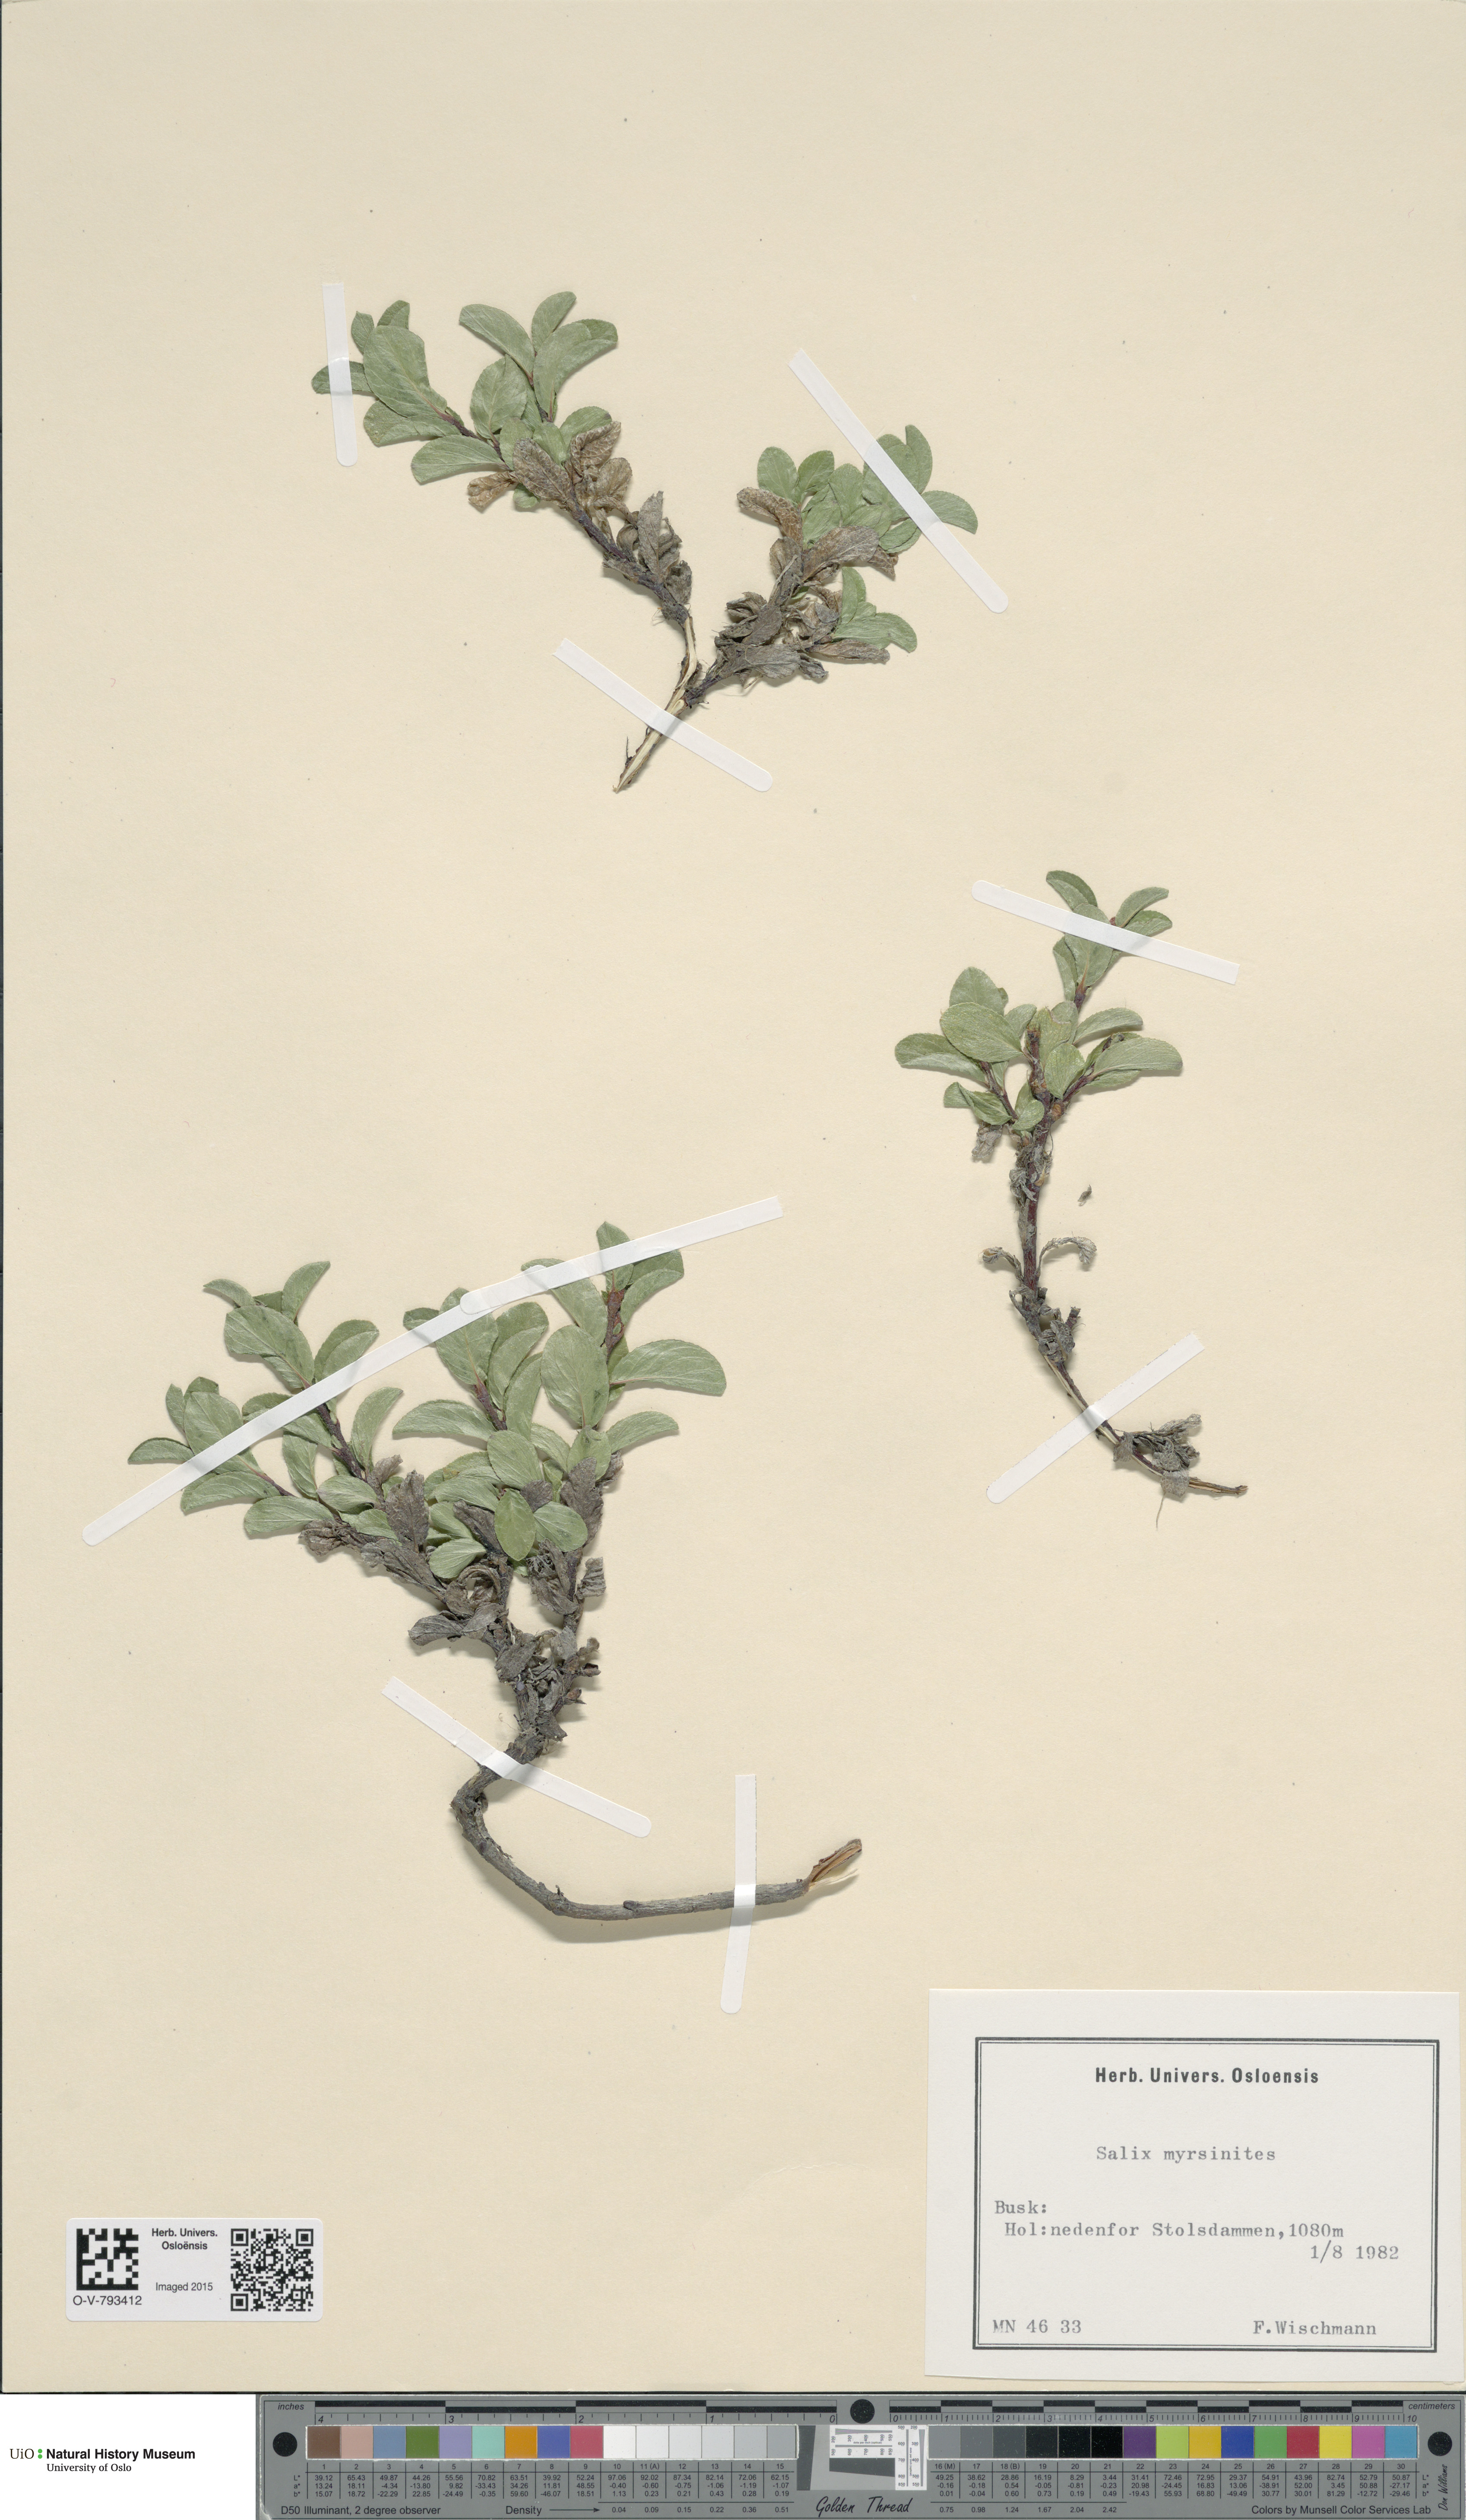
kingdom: Plantae
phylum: Tracheophyta
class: Magnoliopsida
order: Malpighiales
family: Salicaceae
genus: Salix
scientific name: Salix myrsinites
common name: Myrtle willow
